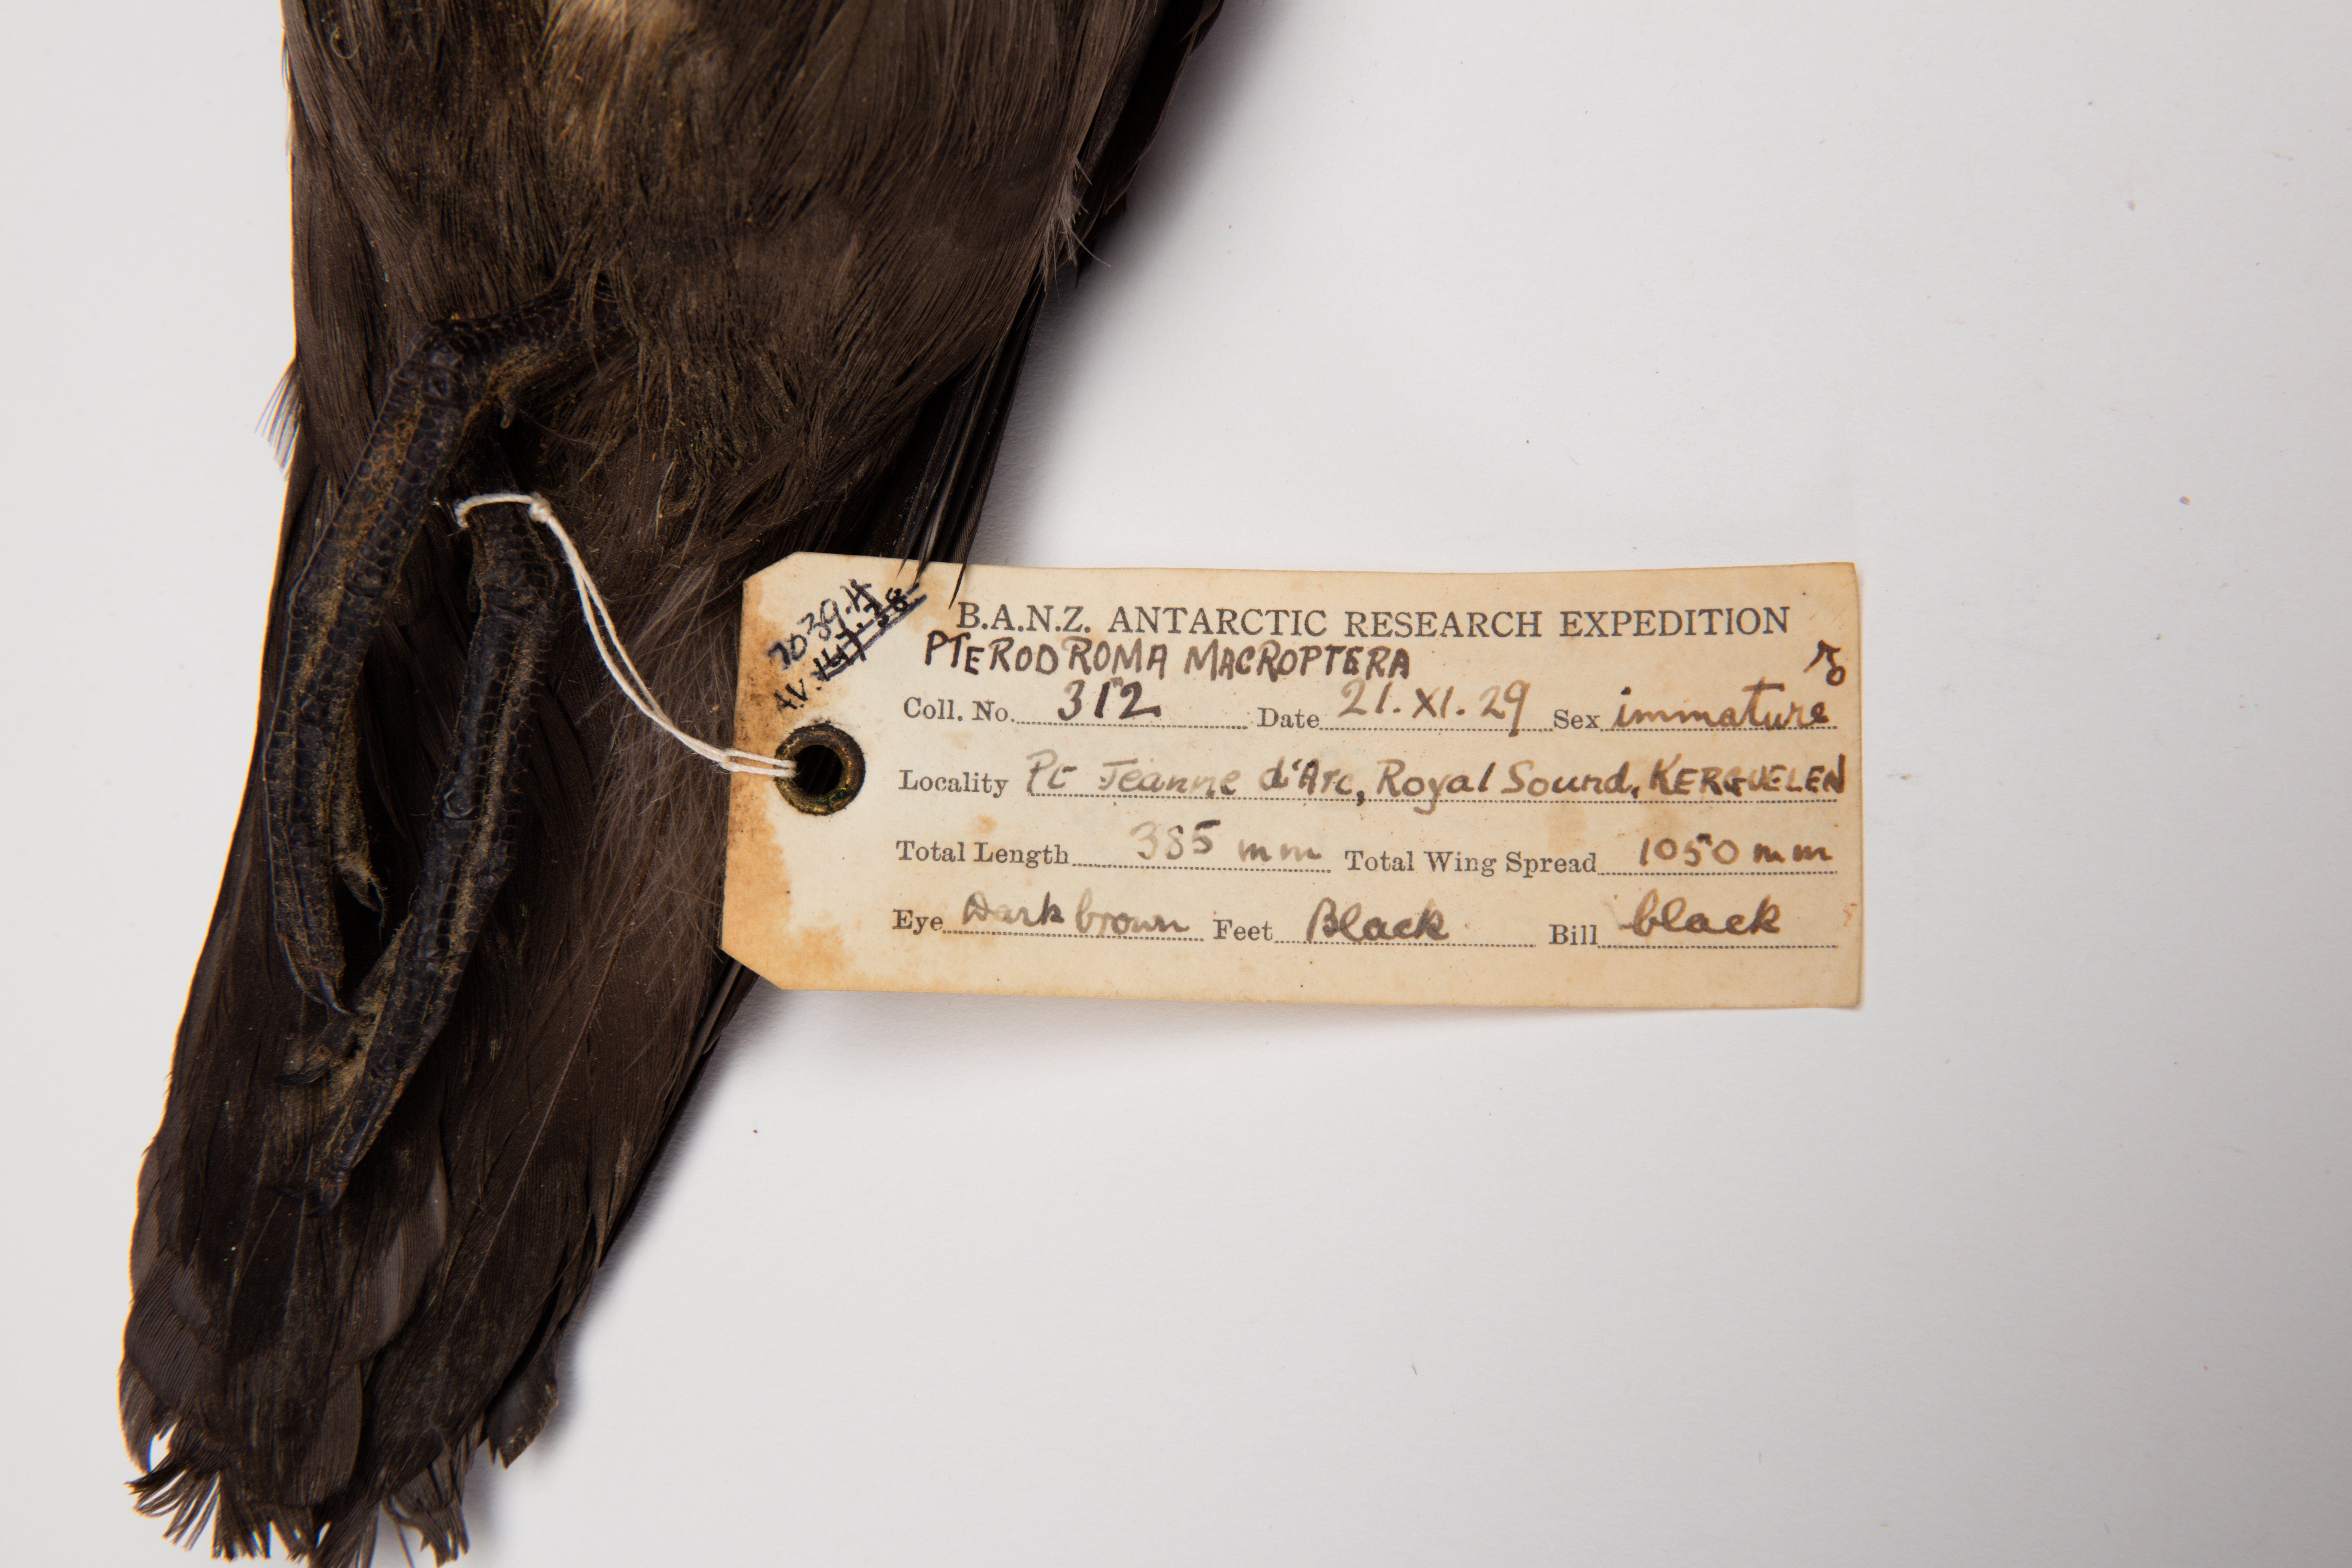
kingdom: Animalia
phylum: Chordata
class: Aves
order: Procellariiformes
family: Procellariidae
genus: Pterodroma
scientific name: Pterodroma macroptera
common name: Great-winged petrel
